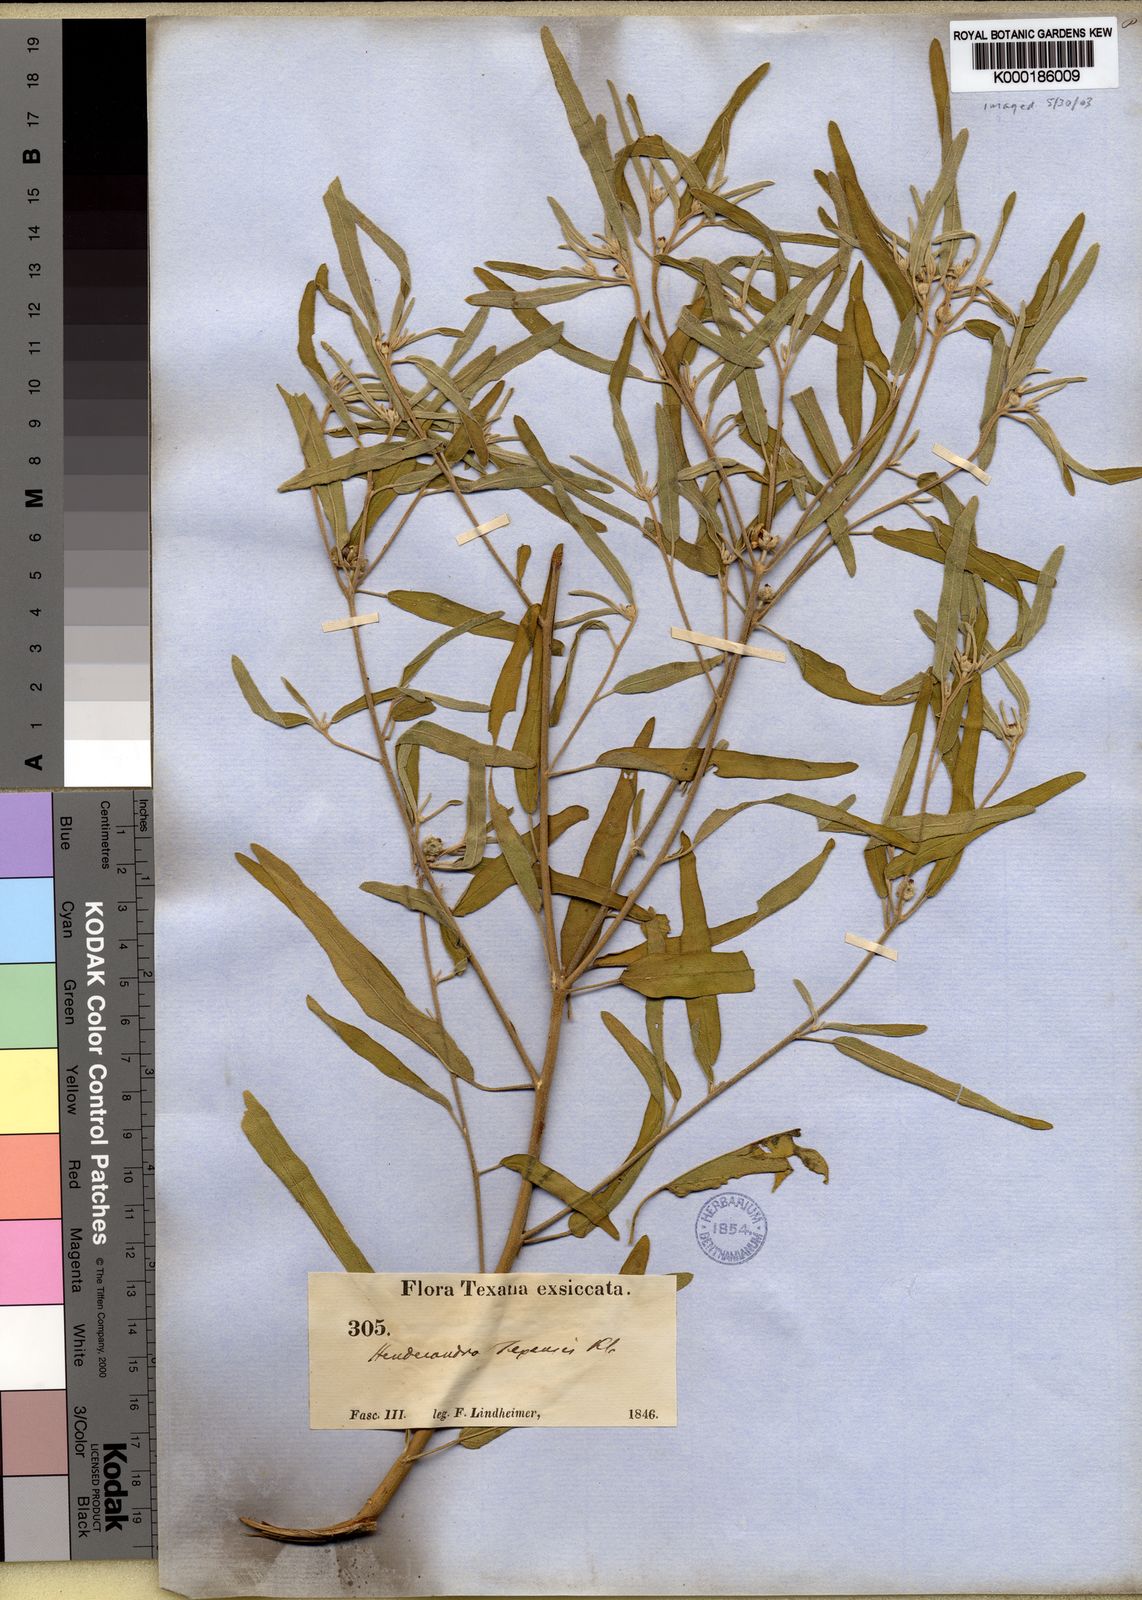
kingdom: Plantae
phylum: Tracheophyta
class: Magnoliopsida
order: Malpighiales
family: Euphorbiaceae
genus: Croton
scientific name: Croton
